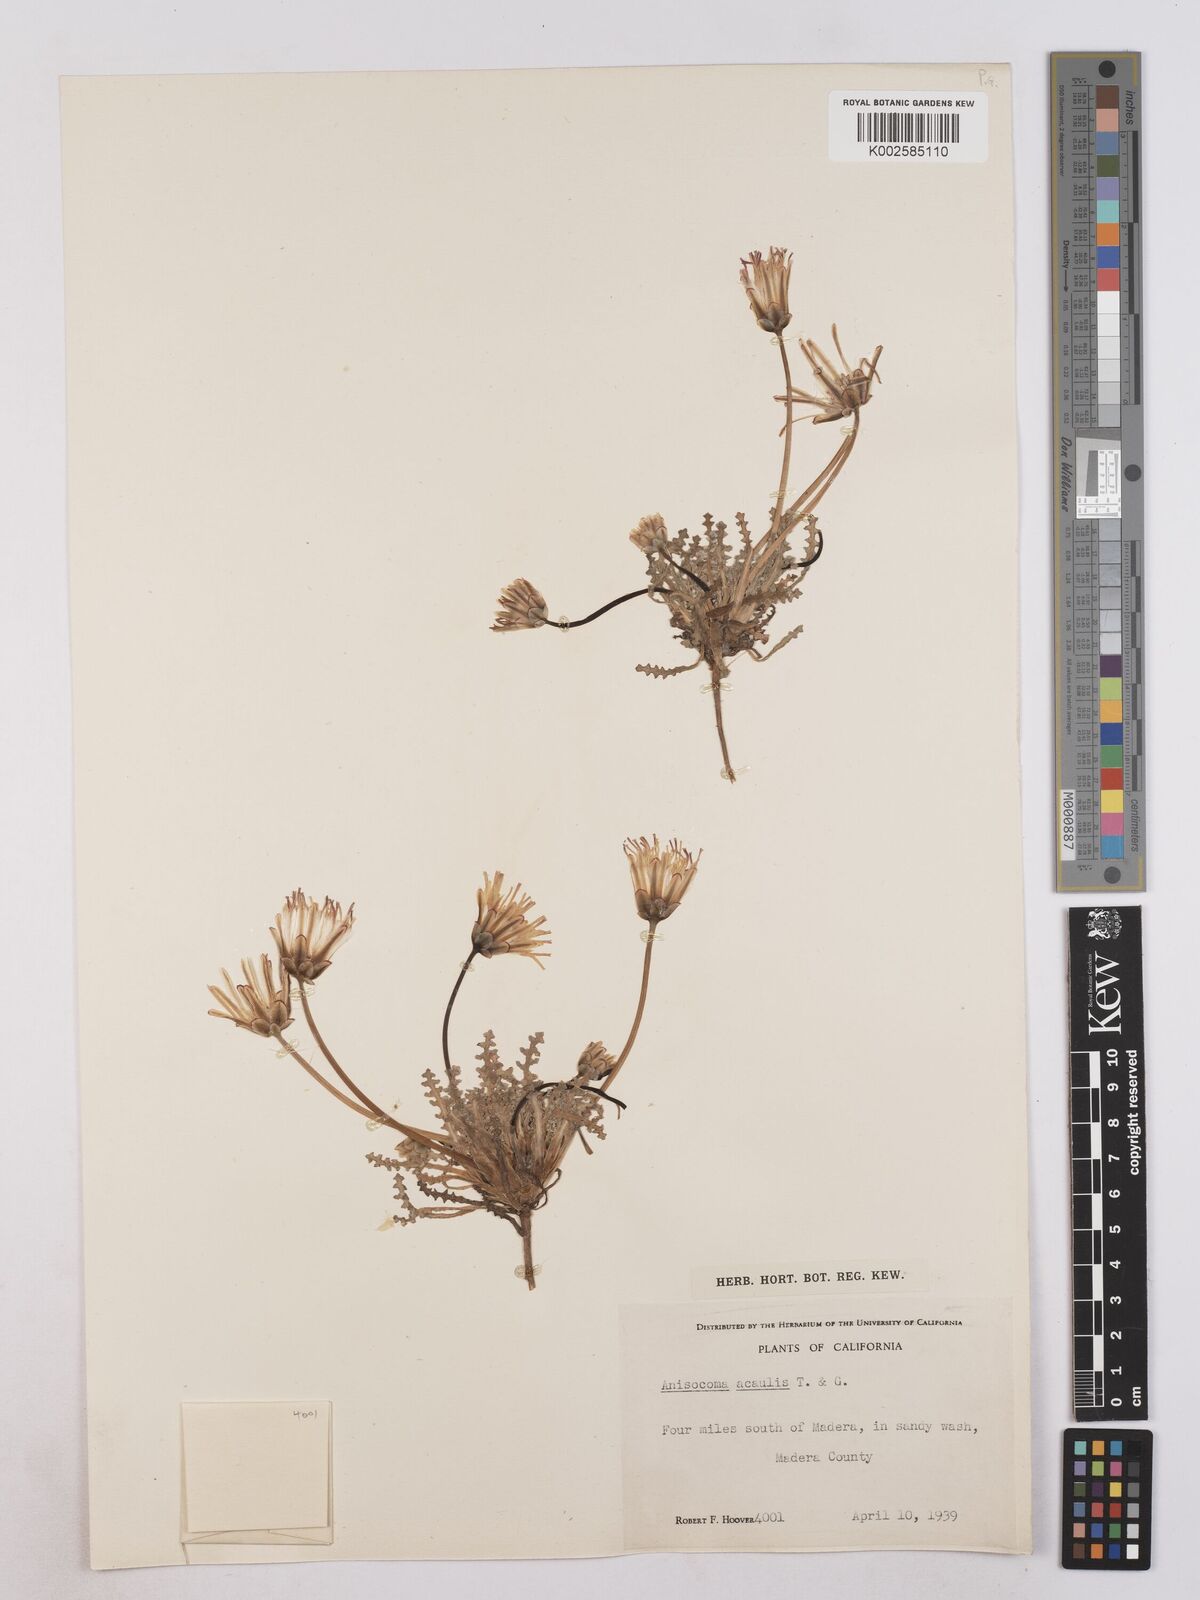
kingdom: Plantae
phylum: Tracheophyta
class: Magnoliopsida
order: Asterales
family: Asteraceae
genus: Anisocoma
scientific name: Anisocoma acaulis
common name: Scalebud
